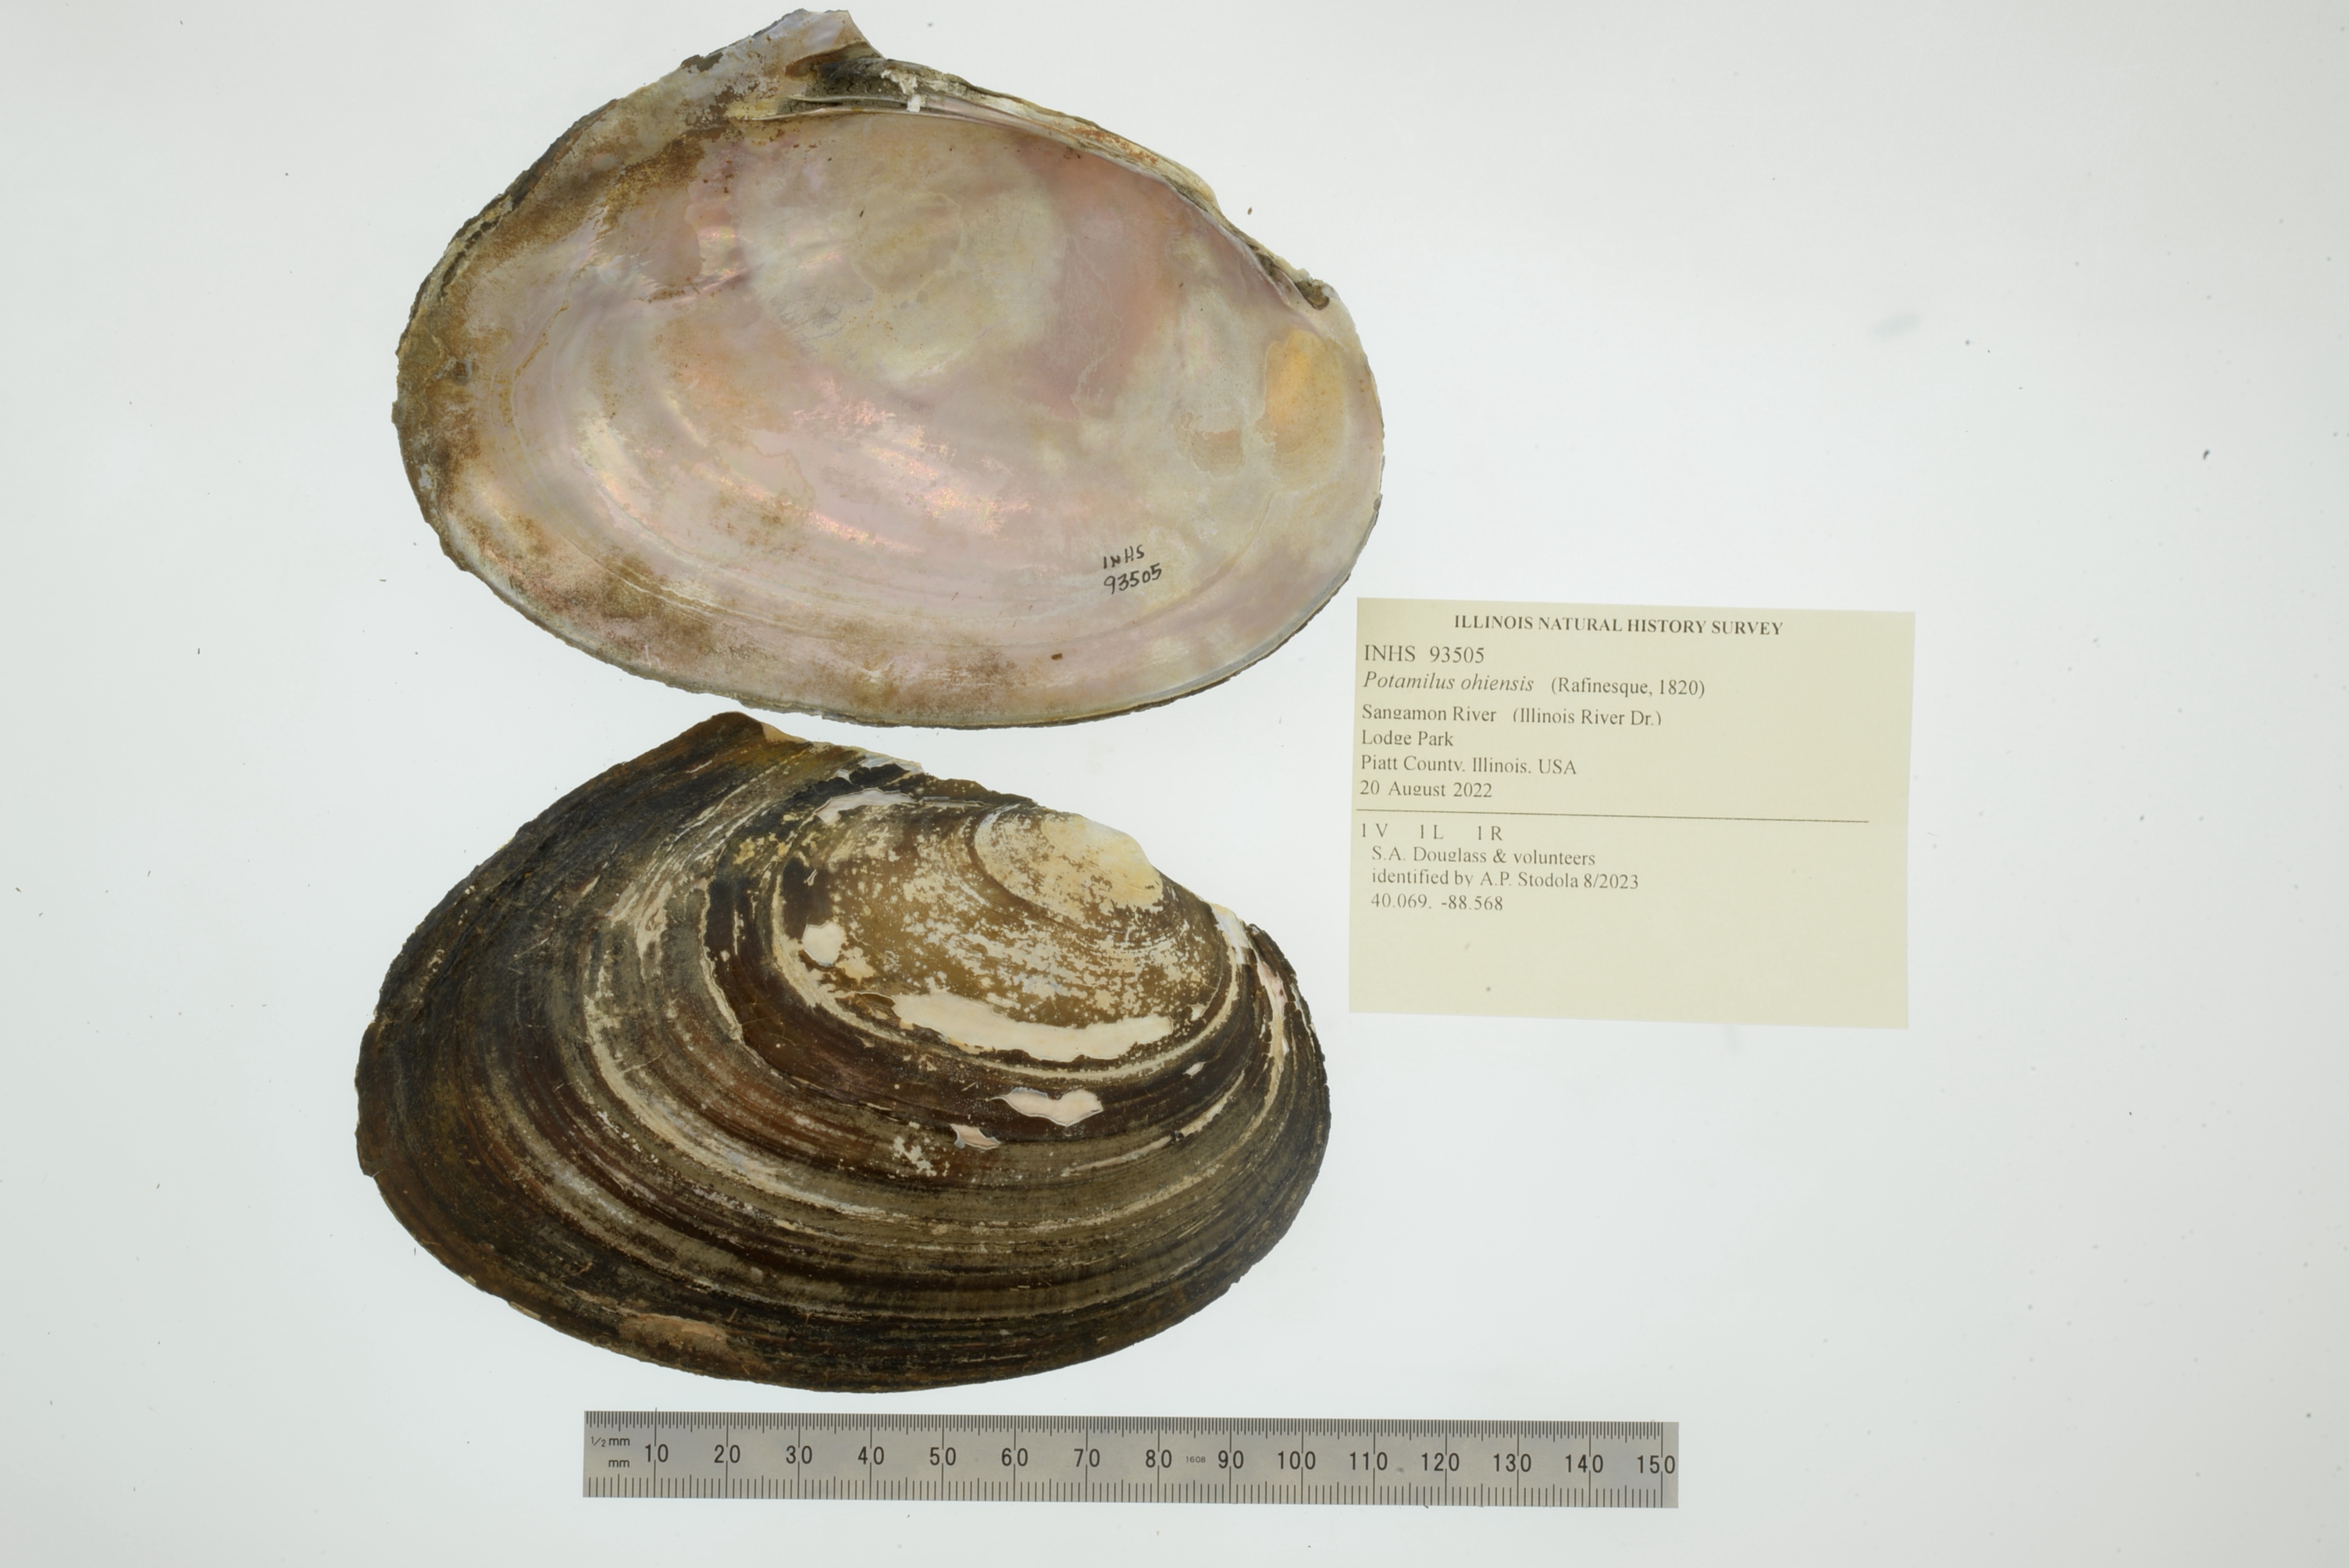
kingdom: Animalia
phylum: Mollusca
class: Bivalvia
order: Unionida
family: Unionidae
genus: Potamilus
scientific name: Potamilus ohiensis
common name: Pink papershell
